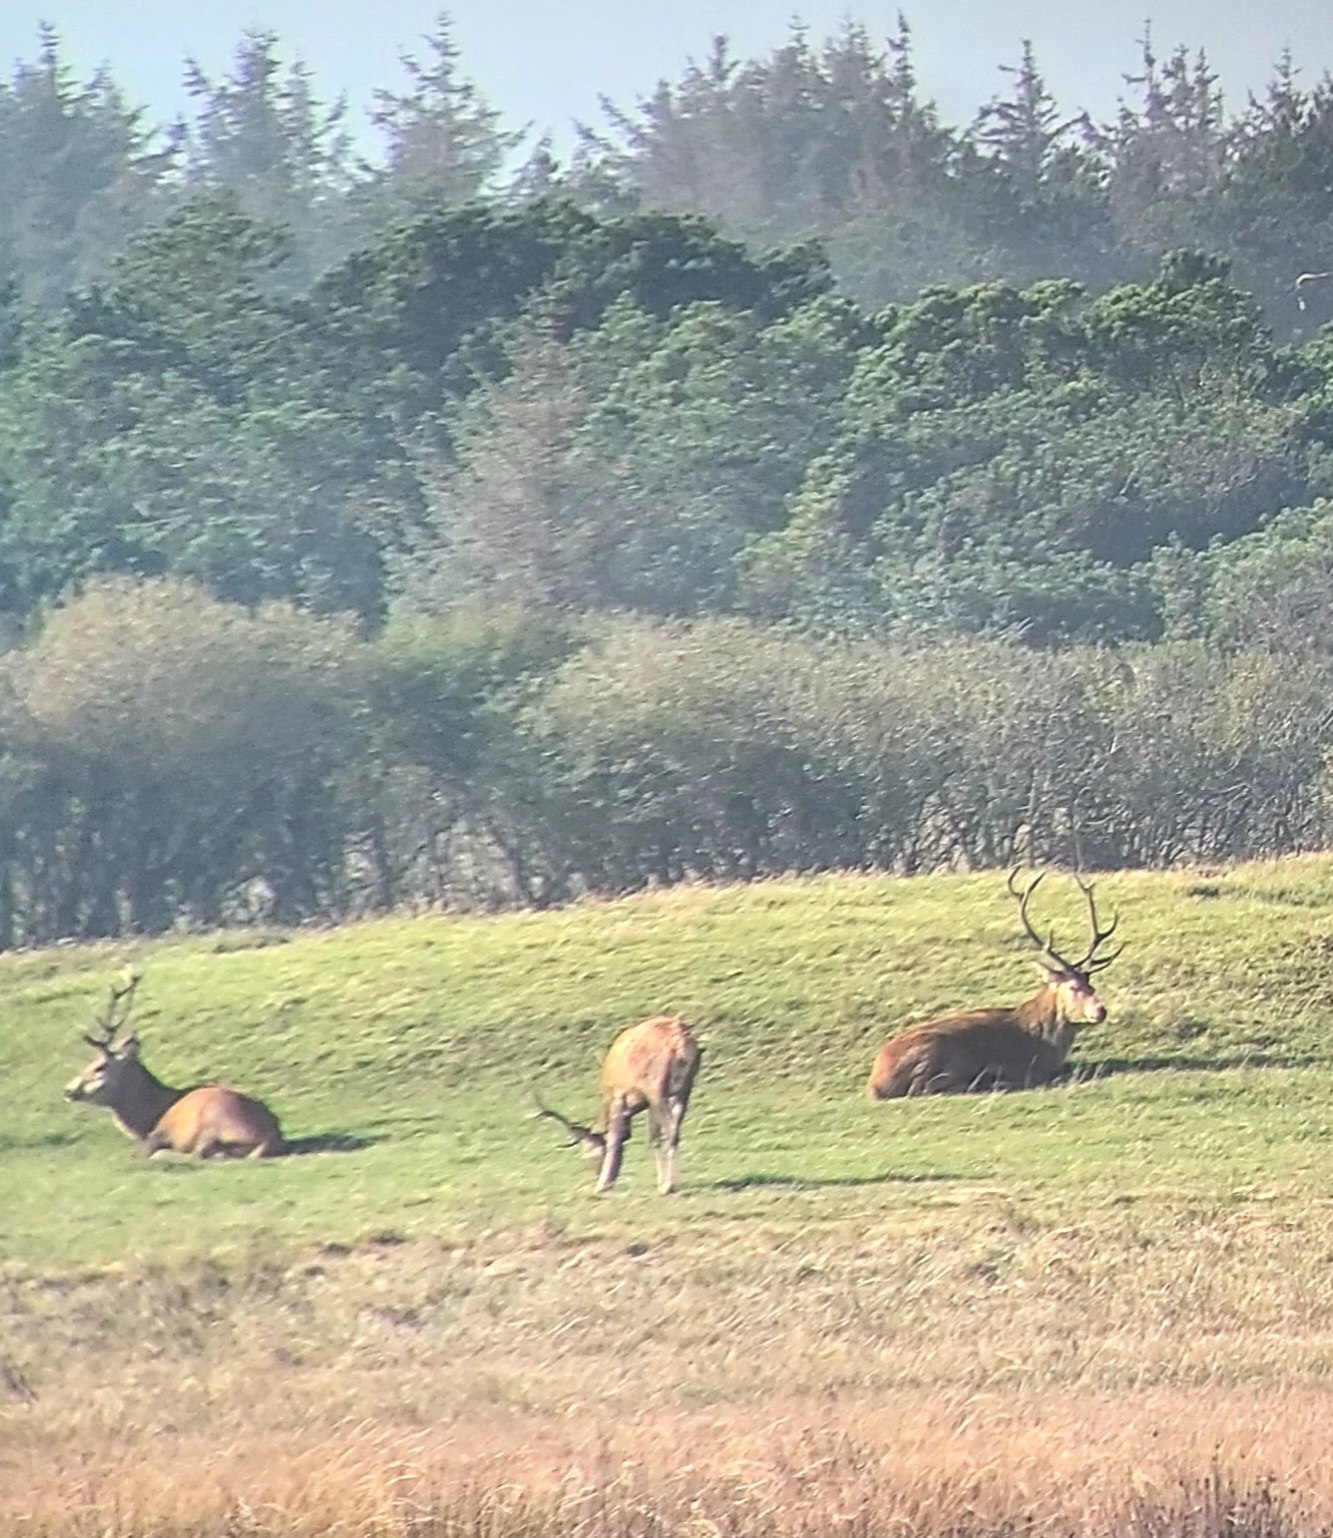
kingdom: Animalia
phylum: Chordata
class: Mammalia
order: Artiodactyla
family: Cervidae
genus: Cervus
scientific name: Cervus elaphus
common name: Krondyr
